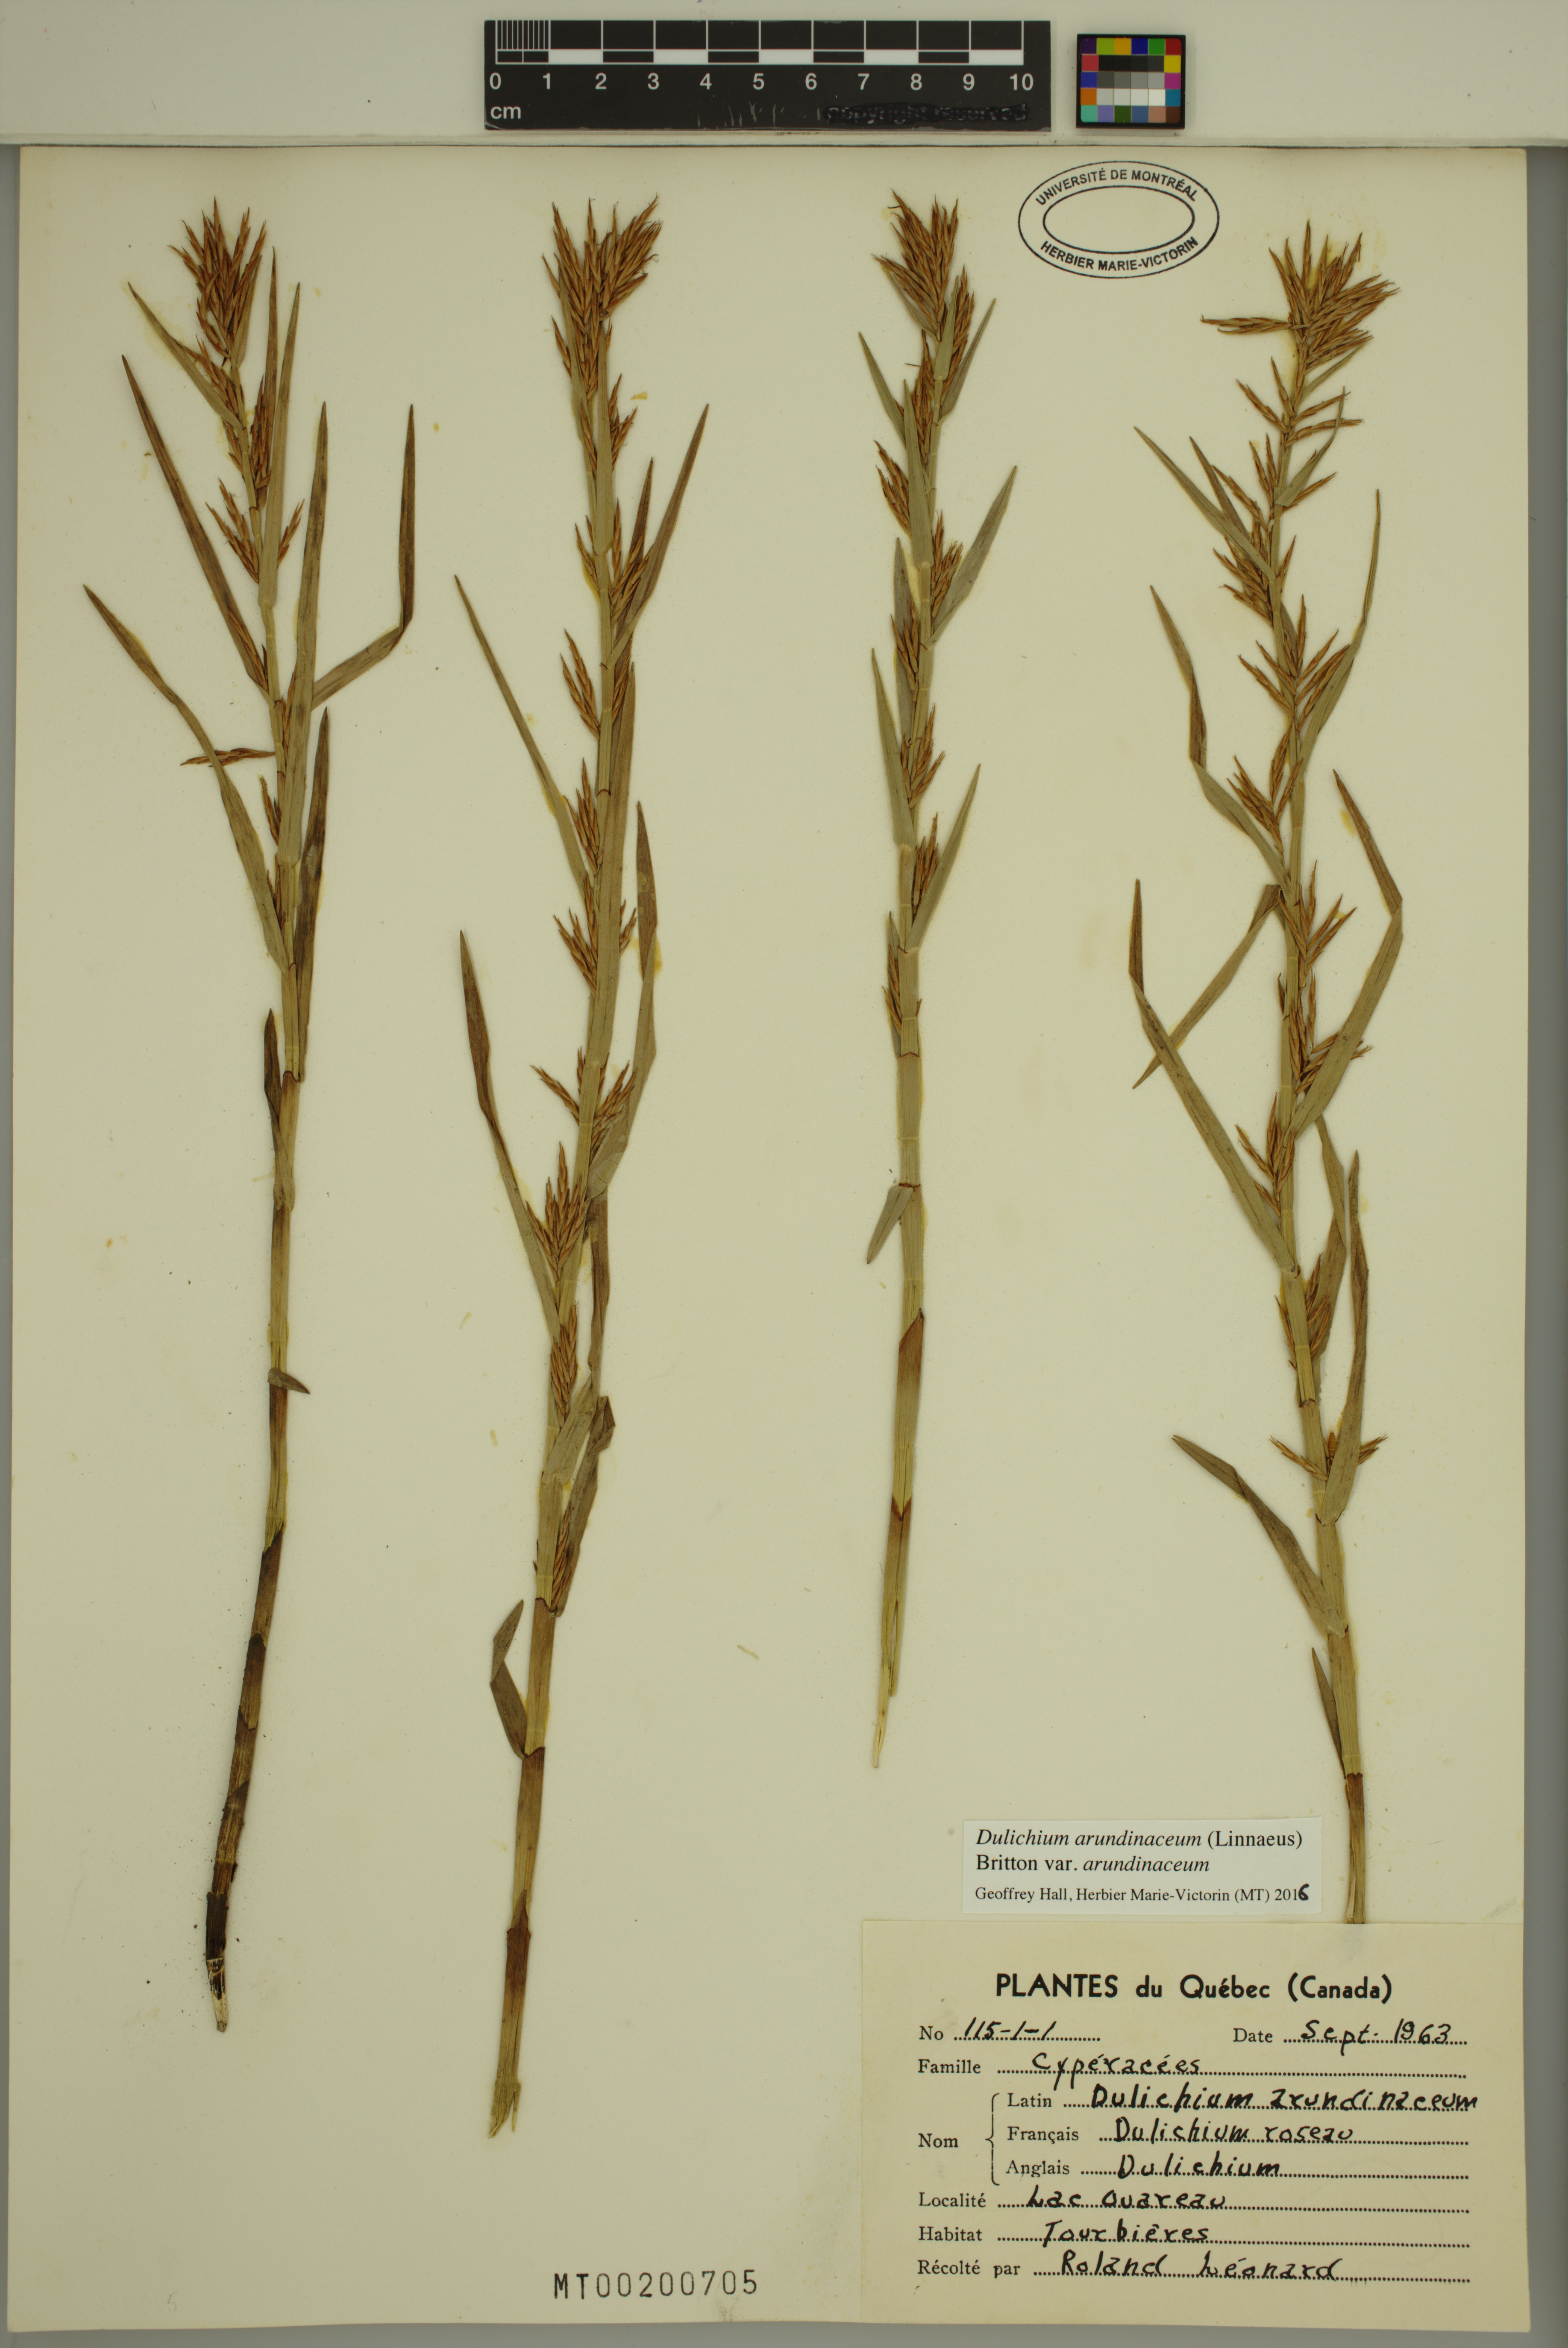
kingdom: Plantae
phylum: Tracheophyta
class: Liliopsida
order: Poales
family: Cyperaceae
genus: Dulichium
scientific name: Dulichium arundinaceum
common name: Three-way sedge
